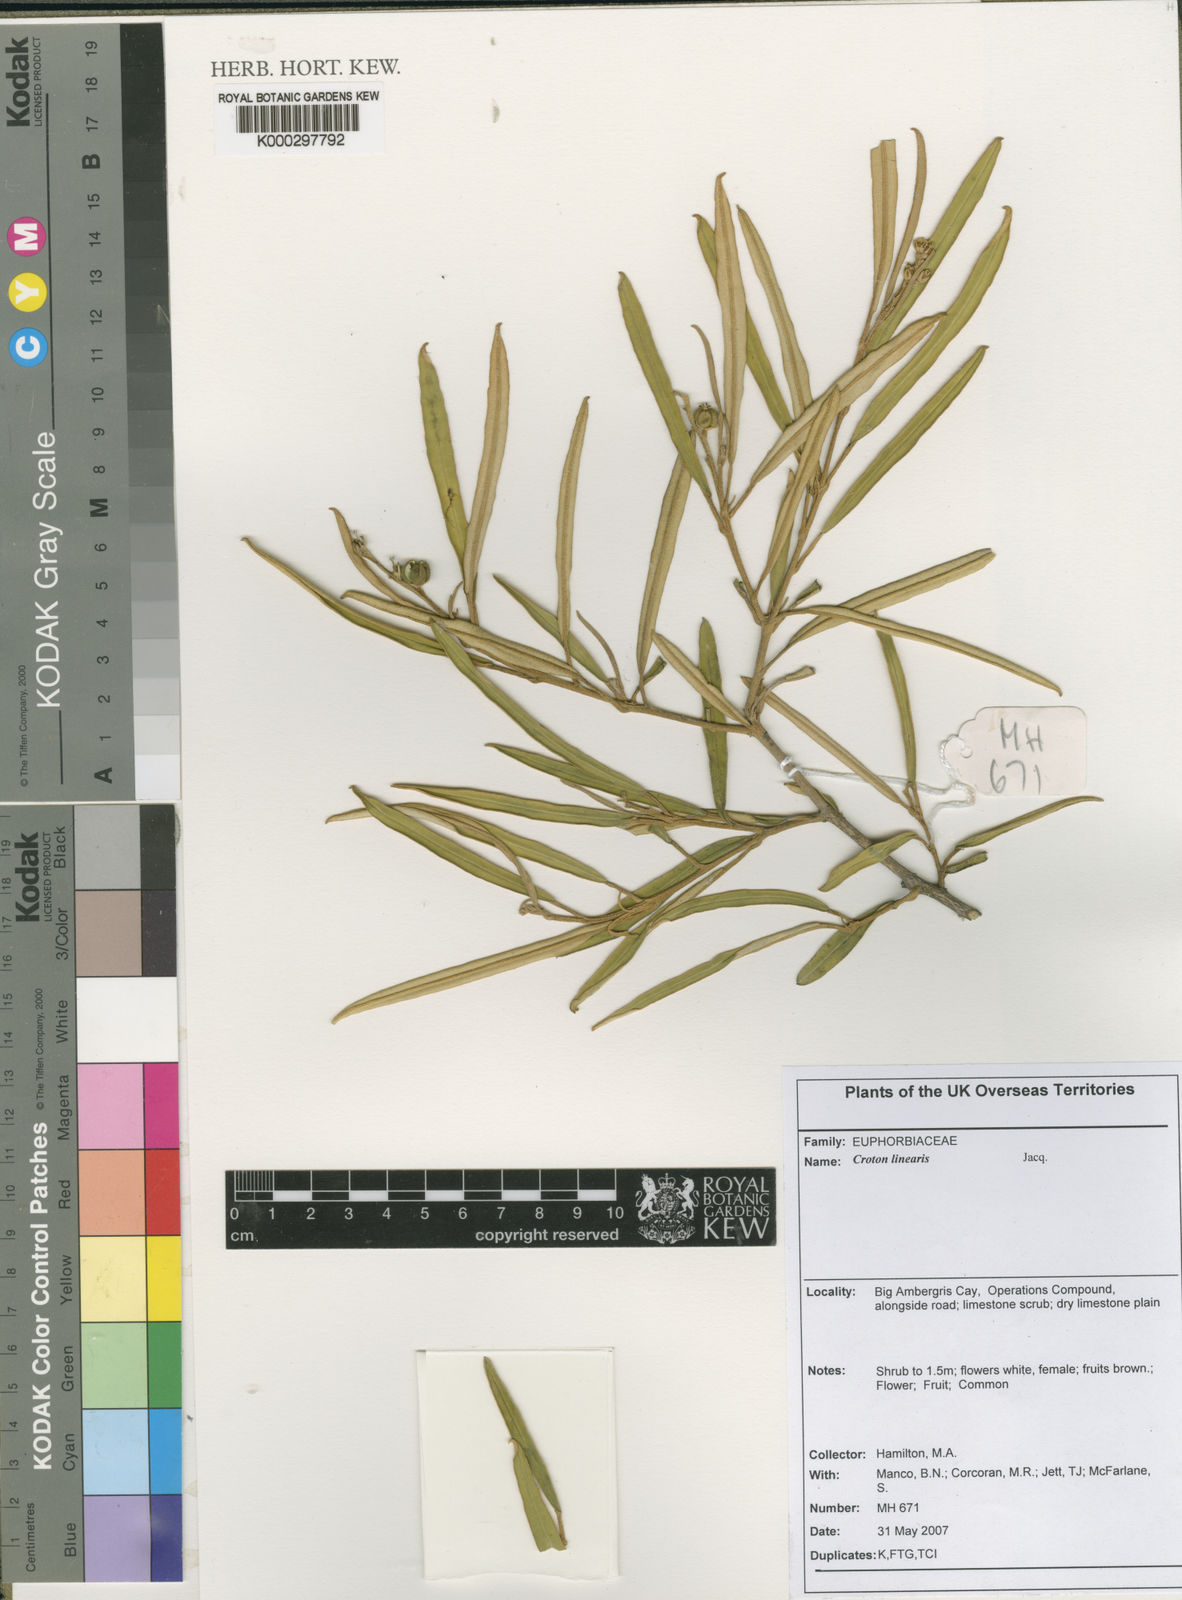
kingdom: Plantae
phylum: Tracheophyta
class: Magnoliopsida
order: Malpighiales
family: Euphorbiaceae
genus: Croton
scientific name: Croton linearis
